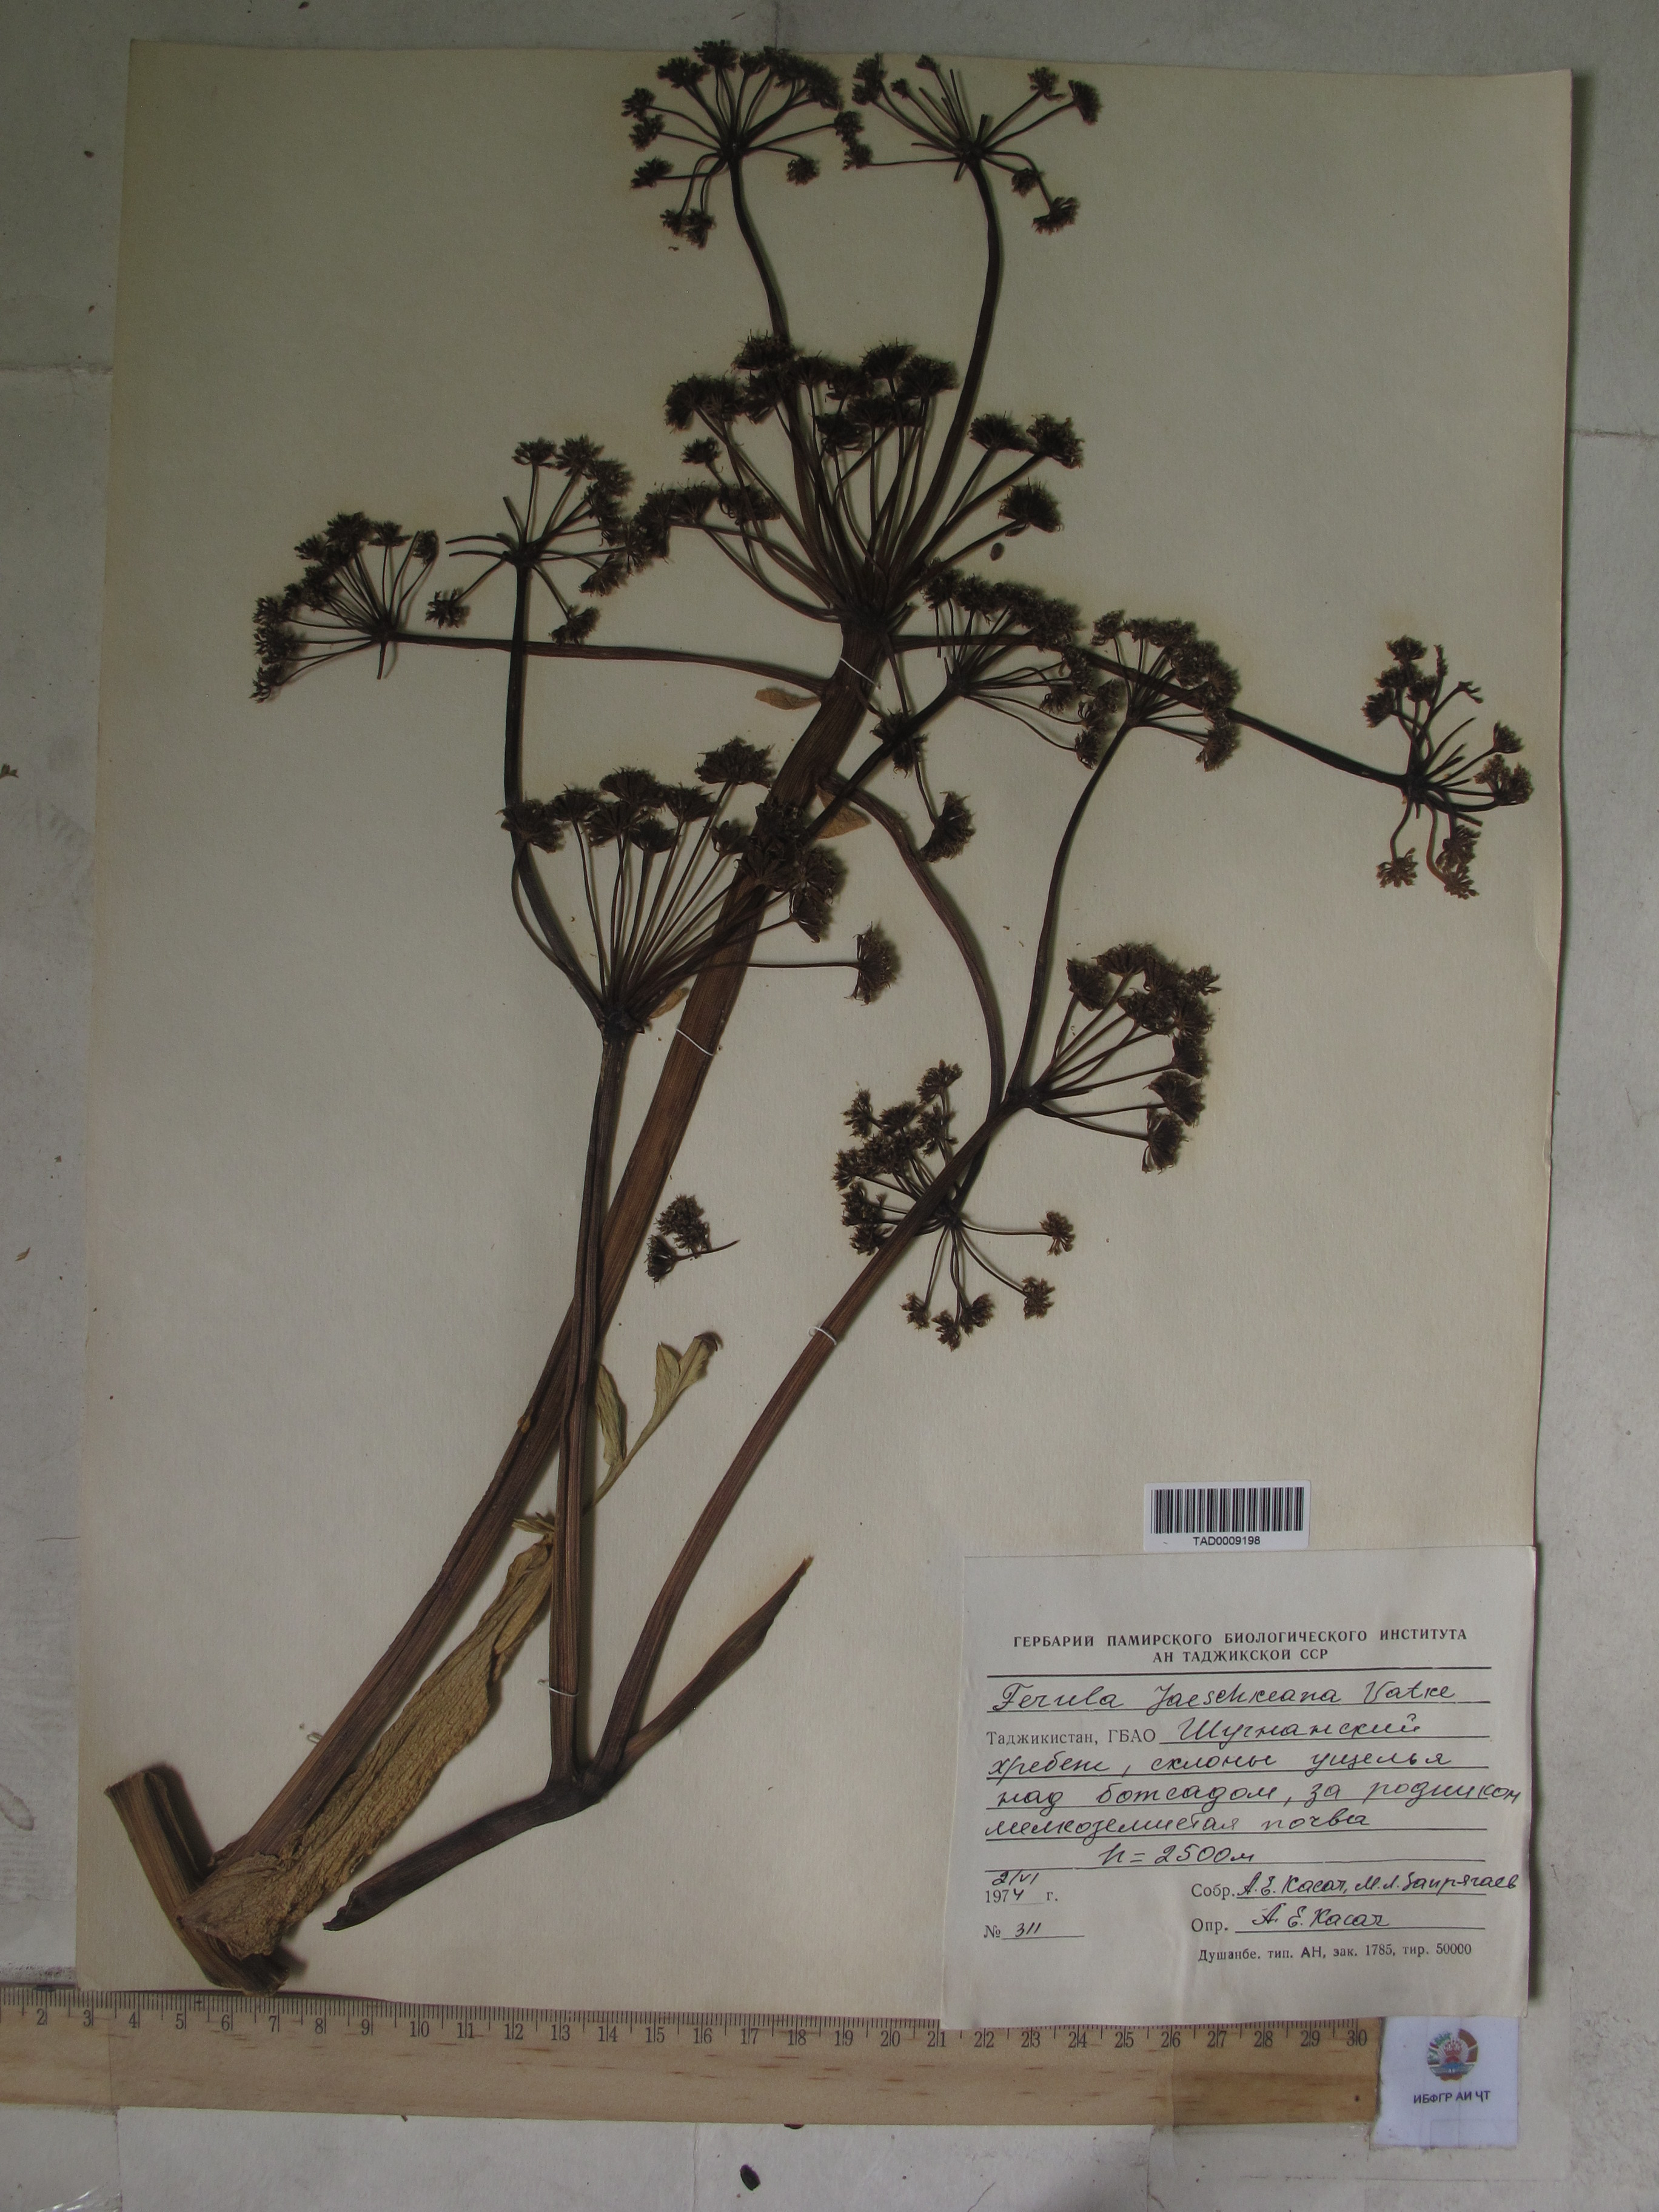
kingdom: Plantae
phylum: Tracheophyta
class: Magnoliopsida
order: Apiales
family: Apiaceae
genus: Ferula
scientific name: Ferula jaeschkeana
